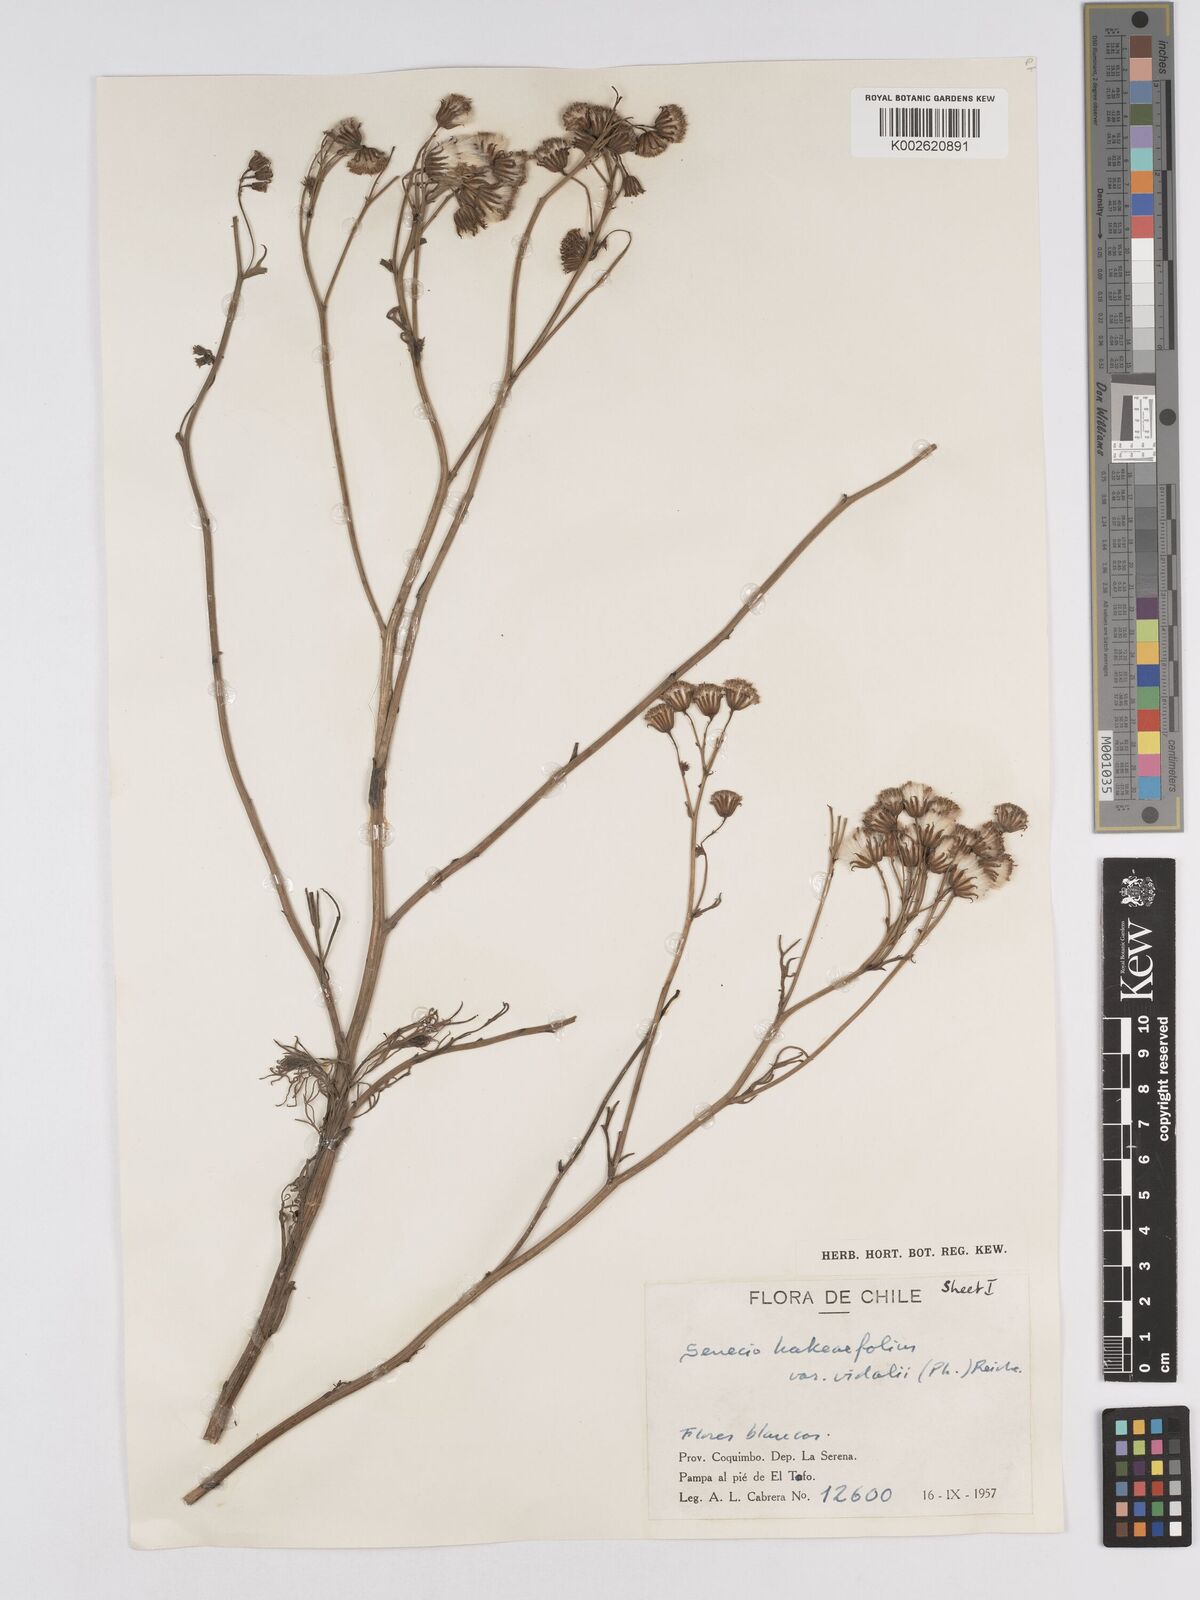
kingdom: Plantae
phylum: Tracheophyta
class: Magnoliopsida
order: Asterales
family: Asteraceae
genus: Senecio
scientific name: Senecio hakeifolius
